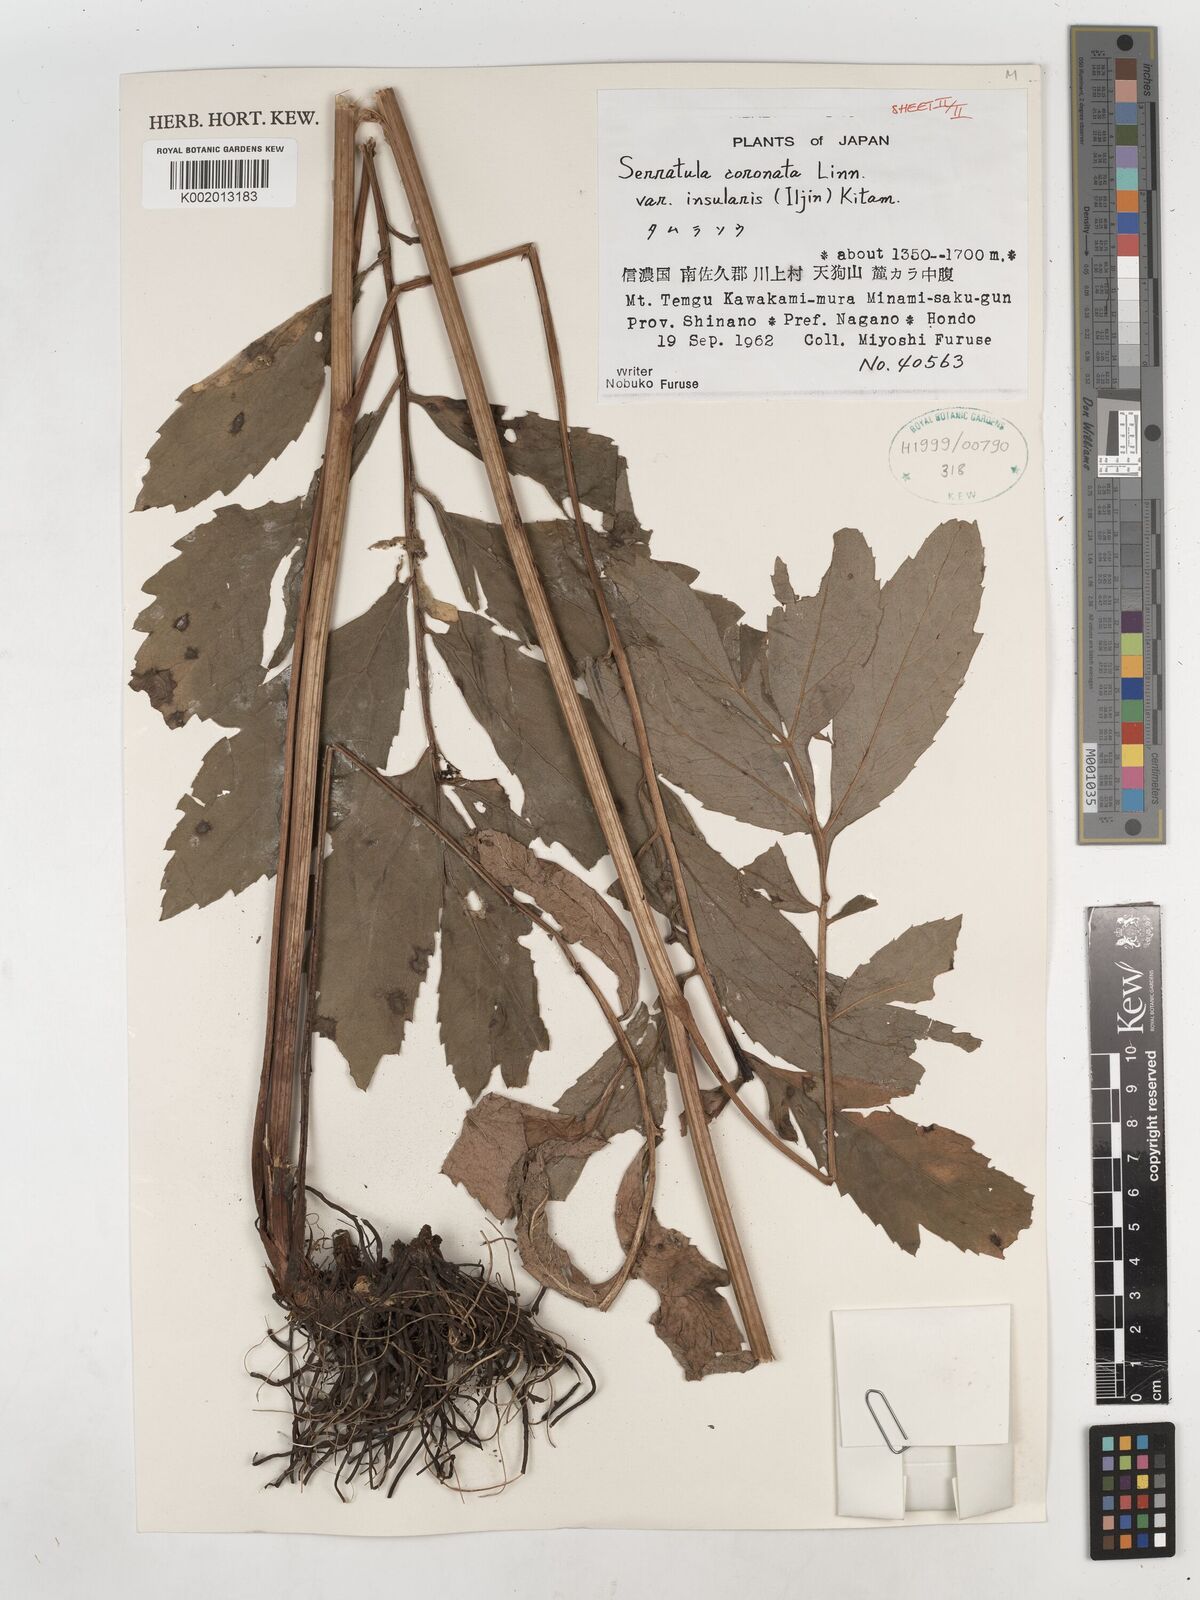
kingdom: Plantae
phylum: Tracheophyta
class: Magnoliopsida
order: Asterales
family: Asteraceae
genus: Serratula
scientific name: Serratula coronata
